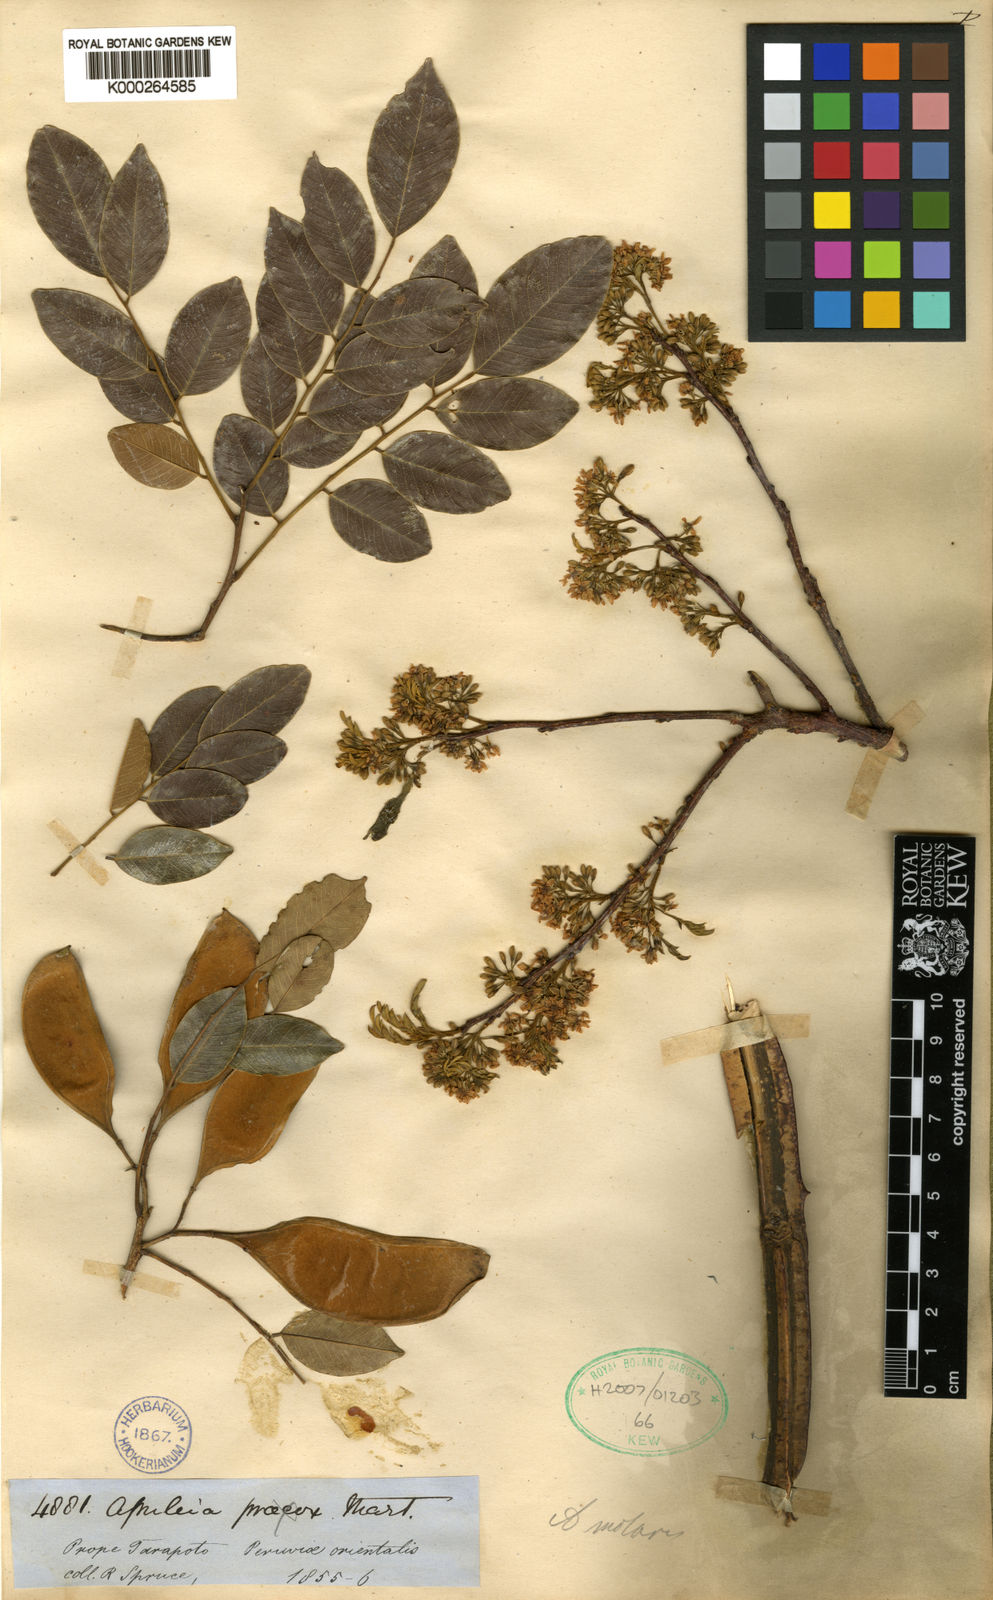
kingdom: Plantae
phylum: Tracheophyta
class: Magnoliopsida
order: Fabales
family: Fabaceae
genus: Apuleia
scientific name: Apuleia leiocarpa
